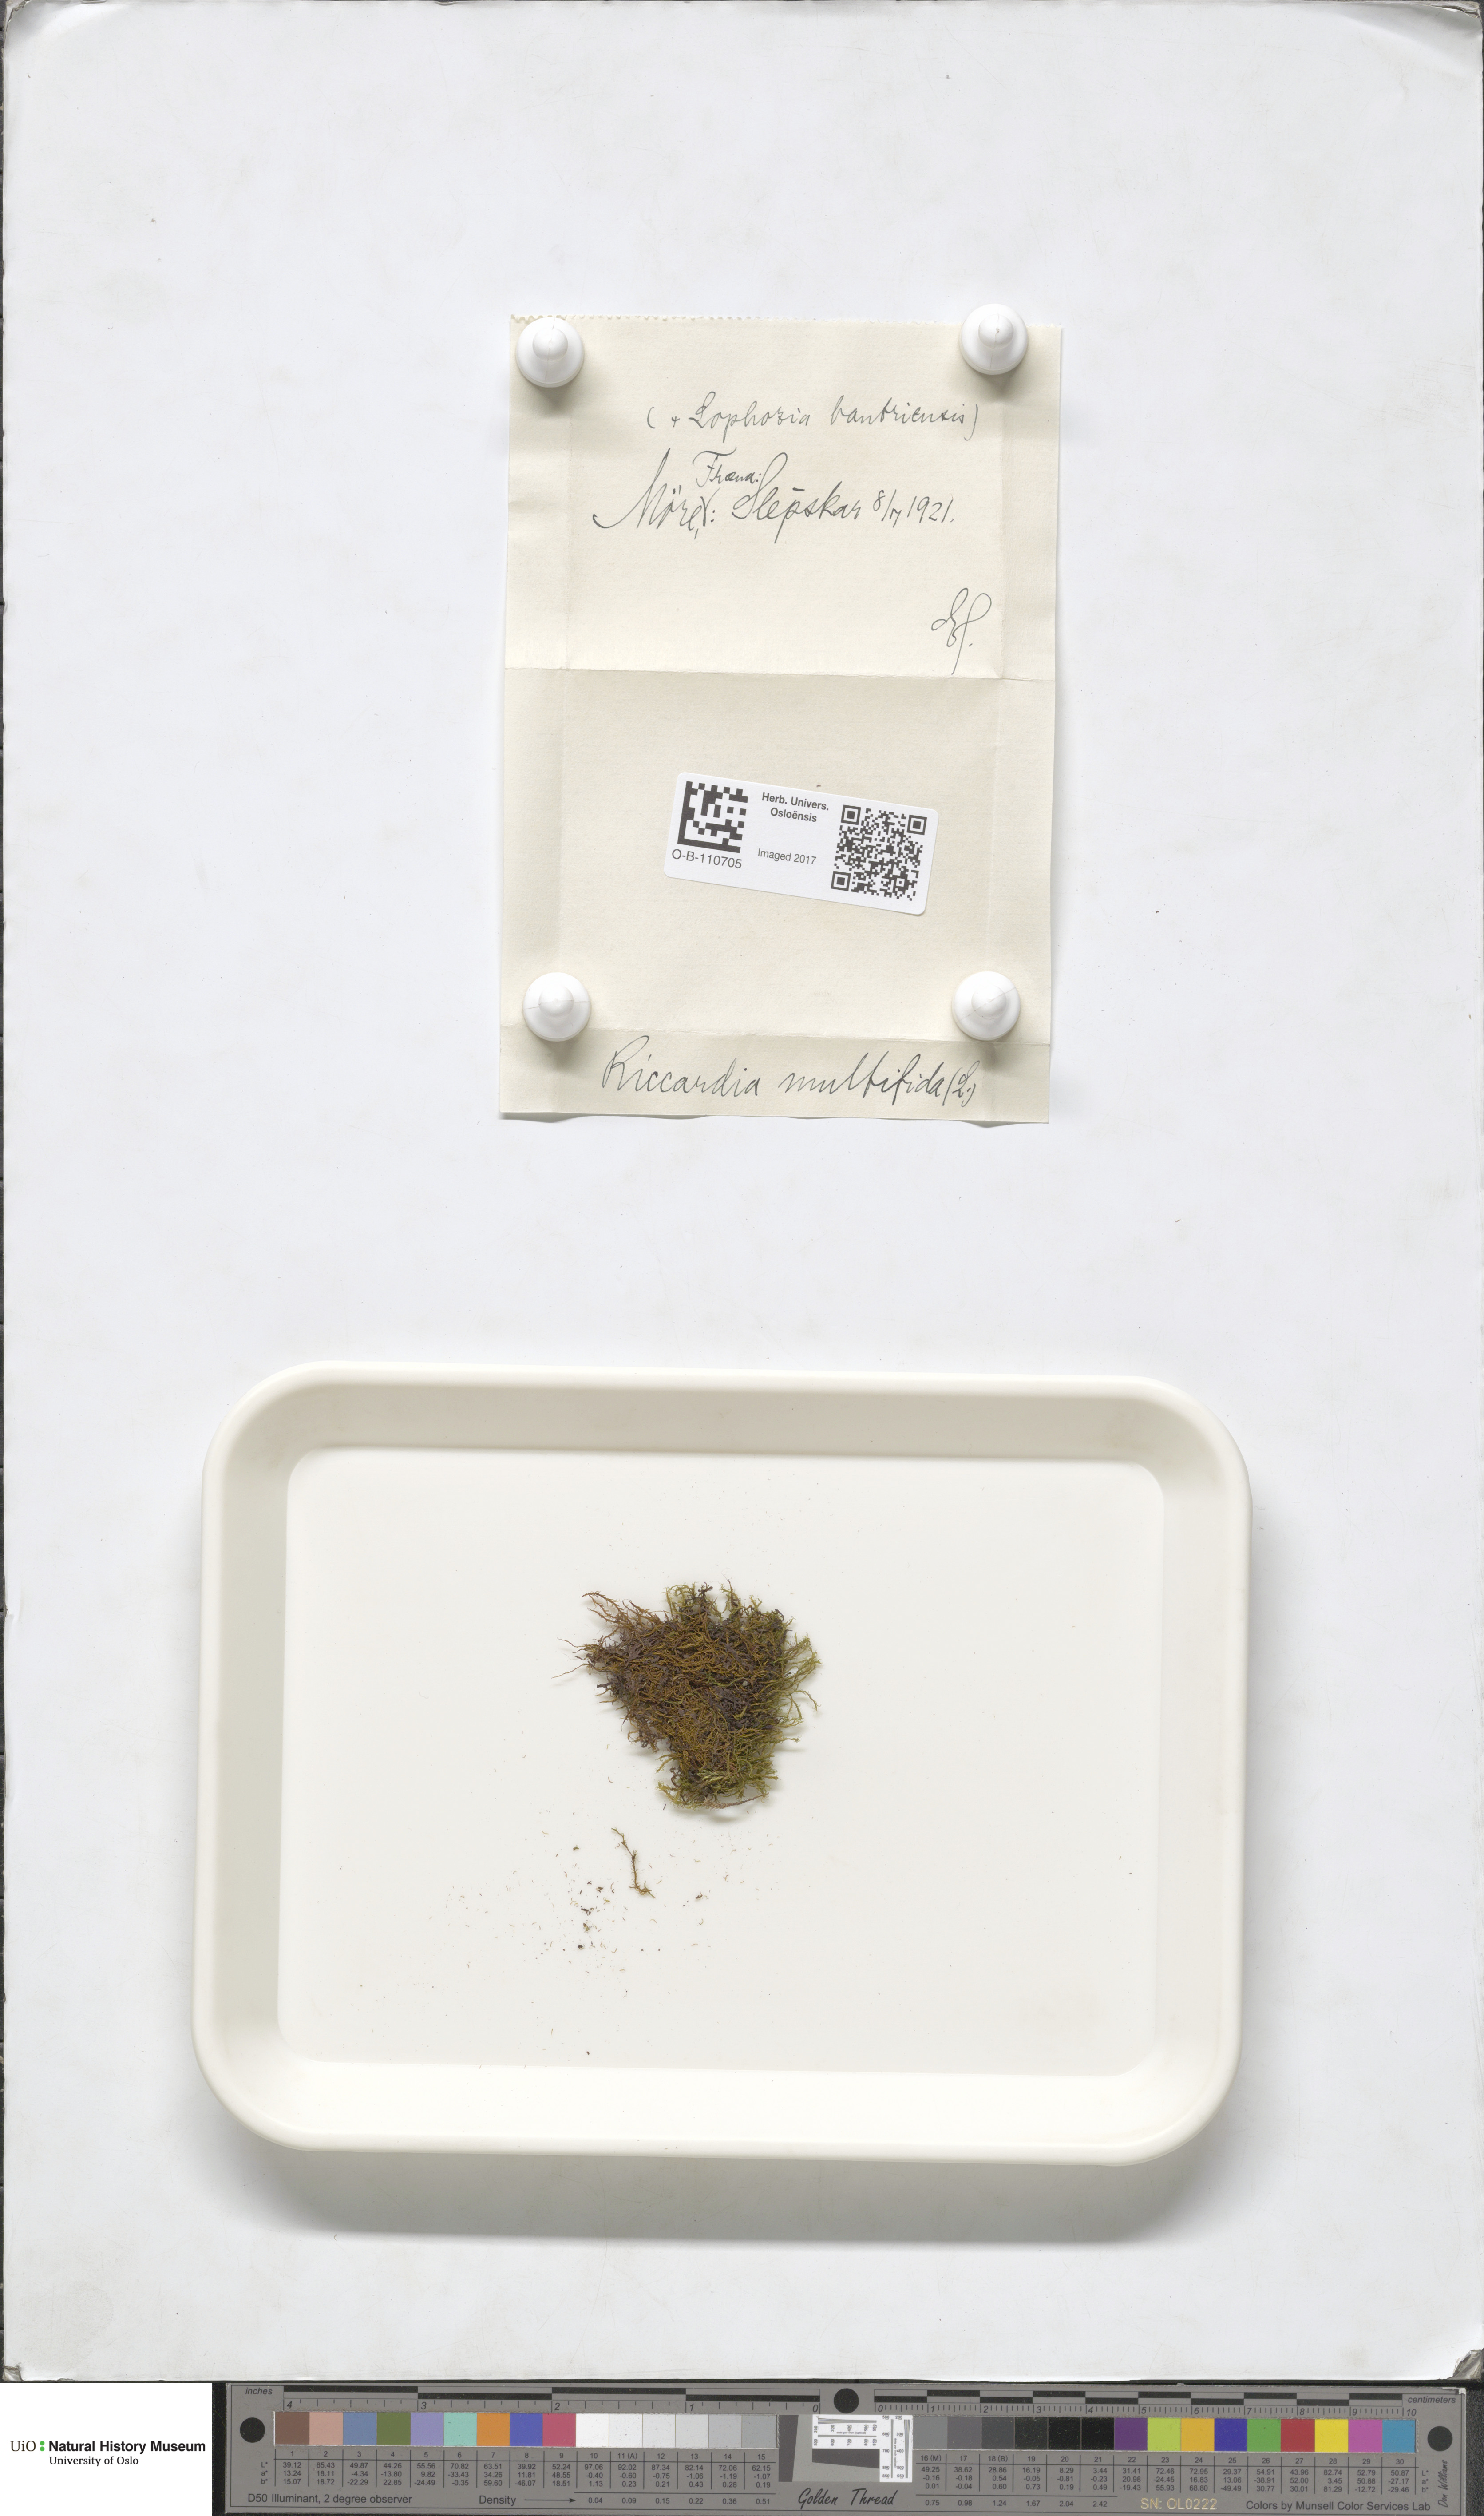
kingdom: Plantae
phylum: Marchantiophyta
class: Jungermanniopsida
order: Metzgeriales
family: Aneuraceae
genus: Riccardia
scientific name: Riccardia palmata
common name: Palmate germanderwort
